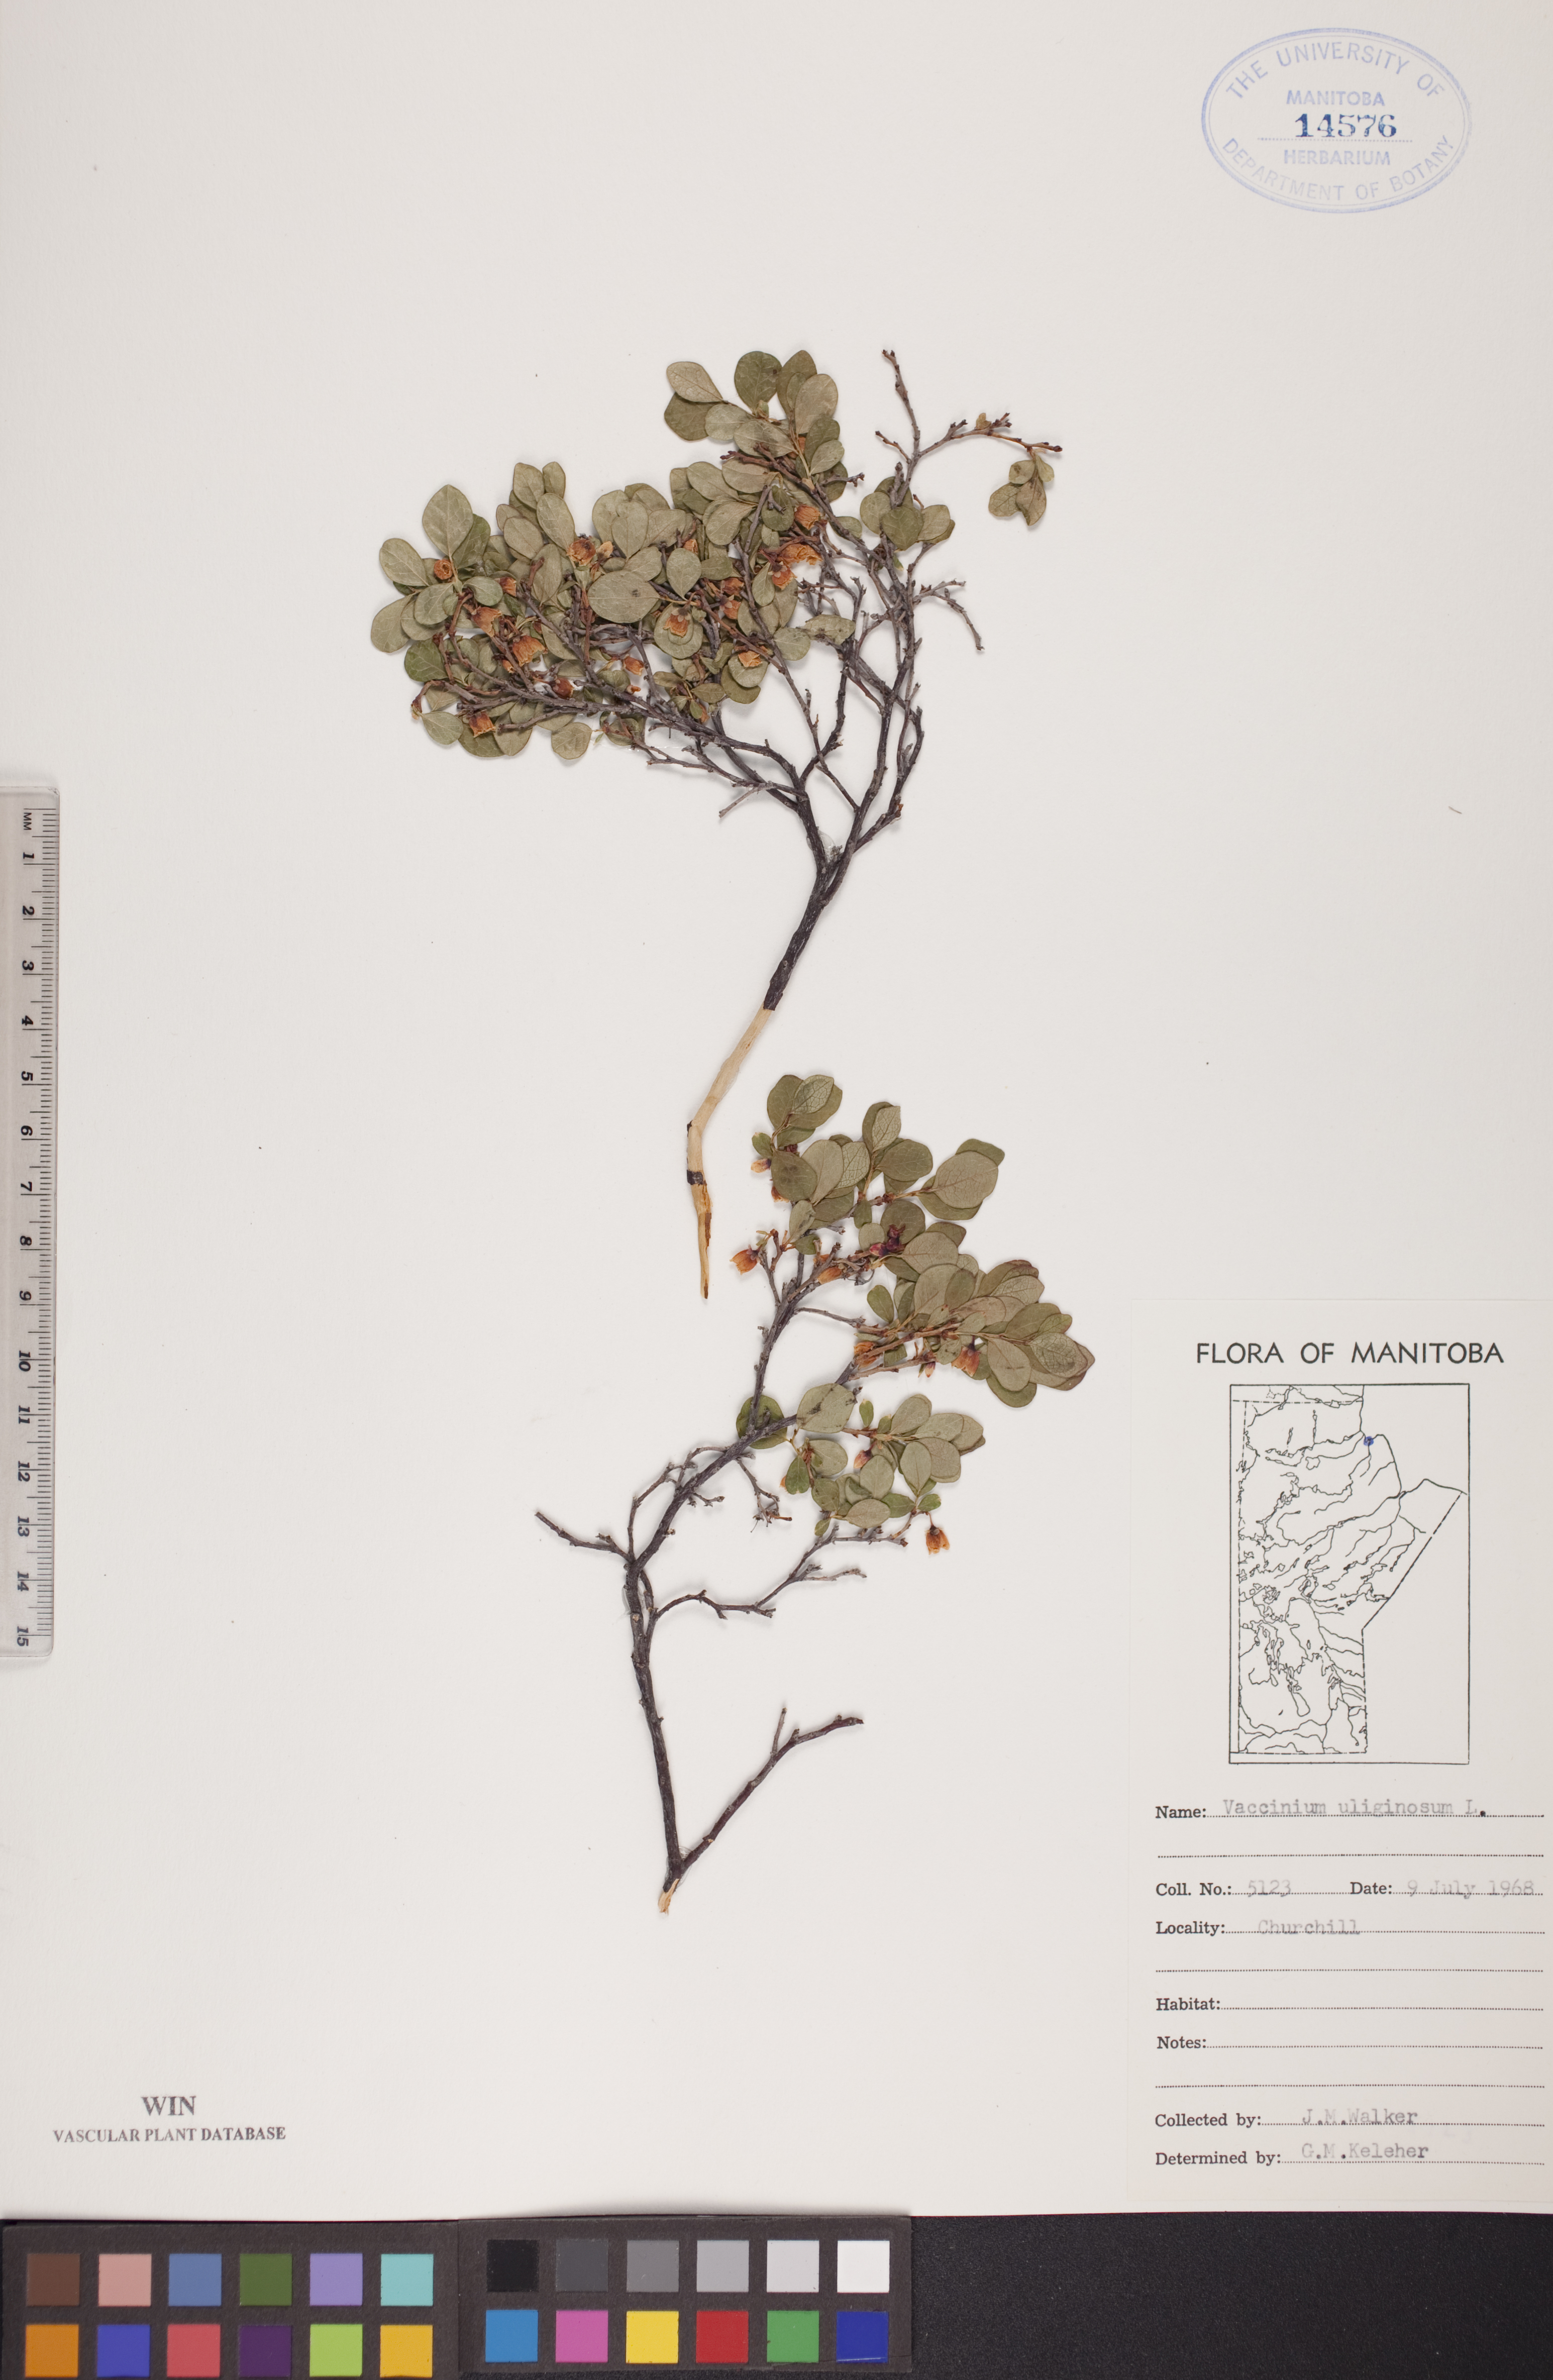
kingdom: Plantae
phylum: Tracheophyta
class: Magnoliopsida
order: Ericales
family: Ericaceae
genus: Vaccinium
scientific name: Vaccinium uliginosum
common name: Bog bilberry
